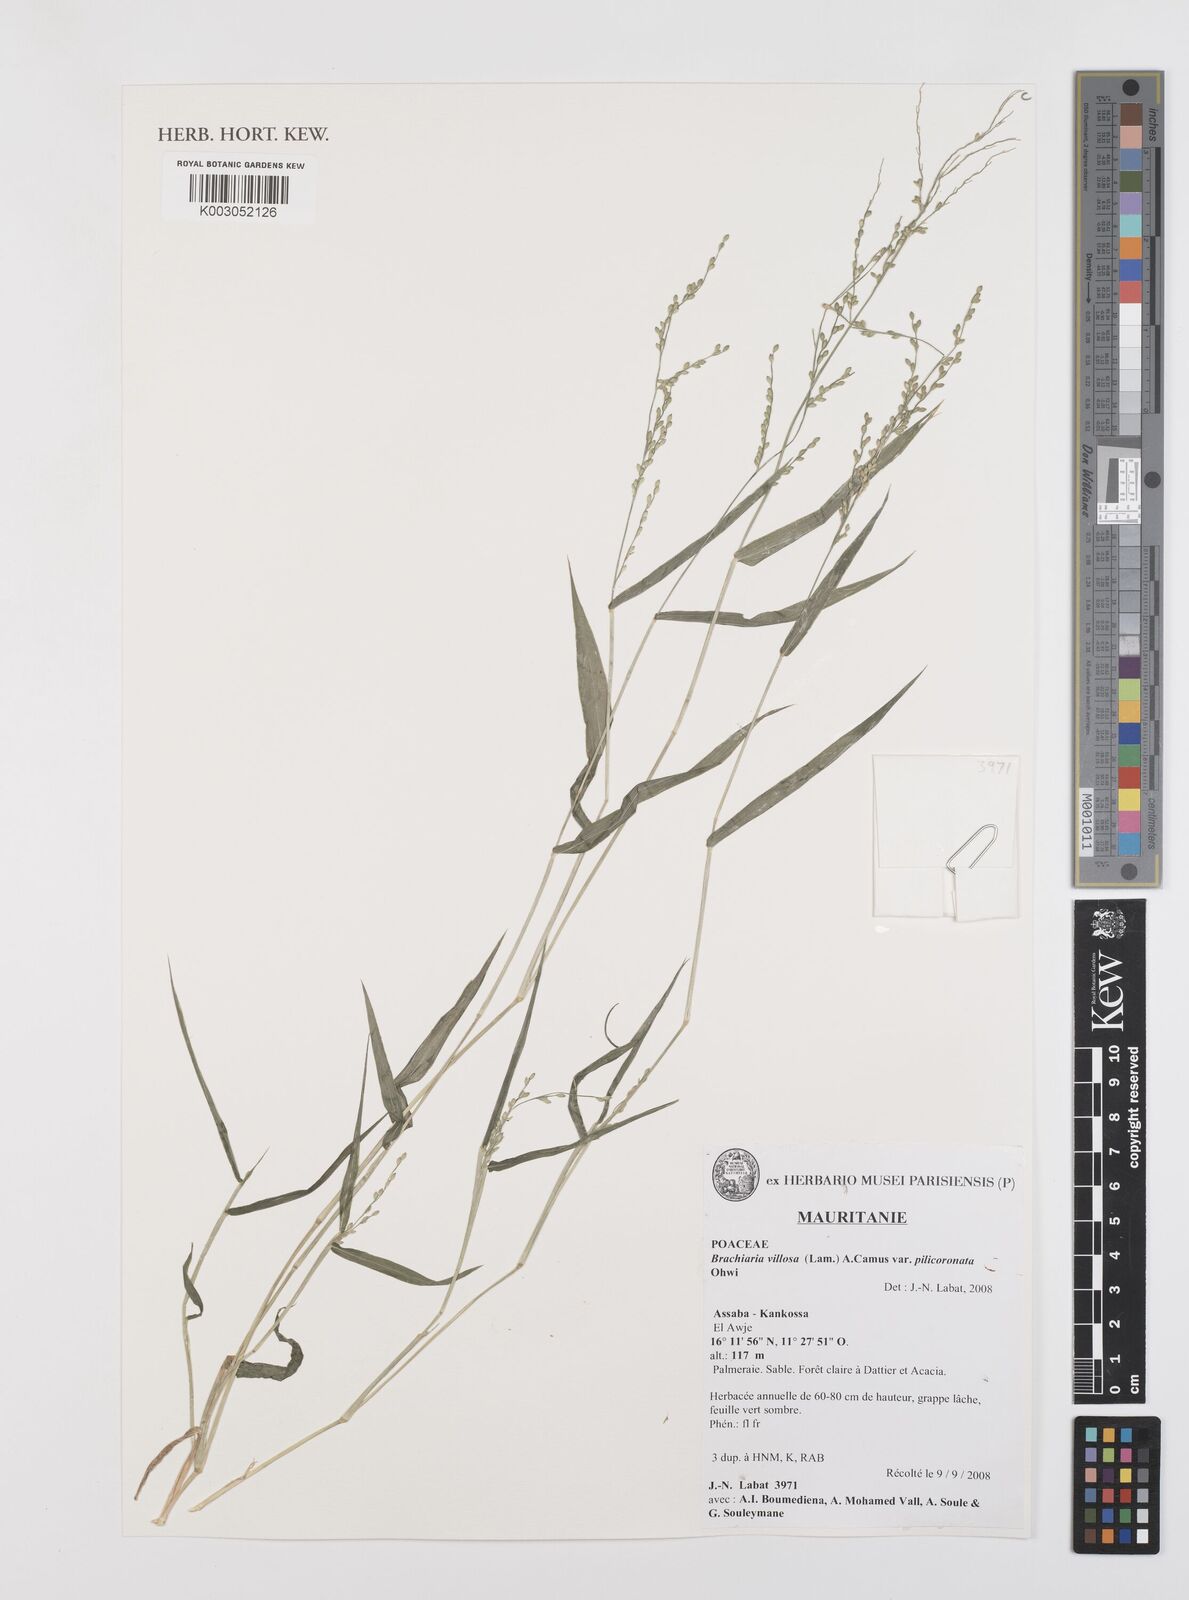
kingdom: Plantae
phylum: Tracheophyta
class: Liliopsida
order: Poales
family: Poaceae
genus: Urochloa
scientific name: Urochloa villosa
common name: Hairy signalgrass
